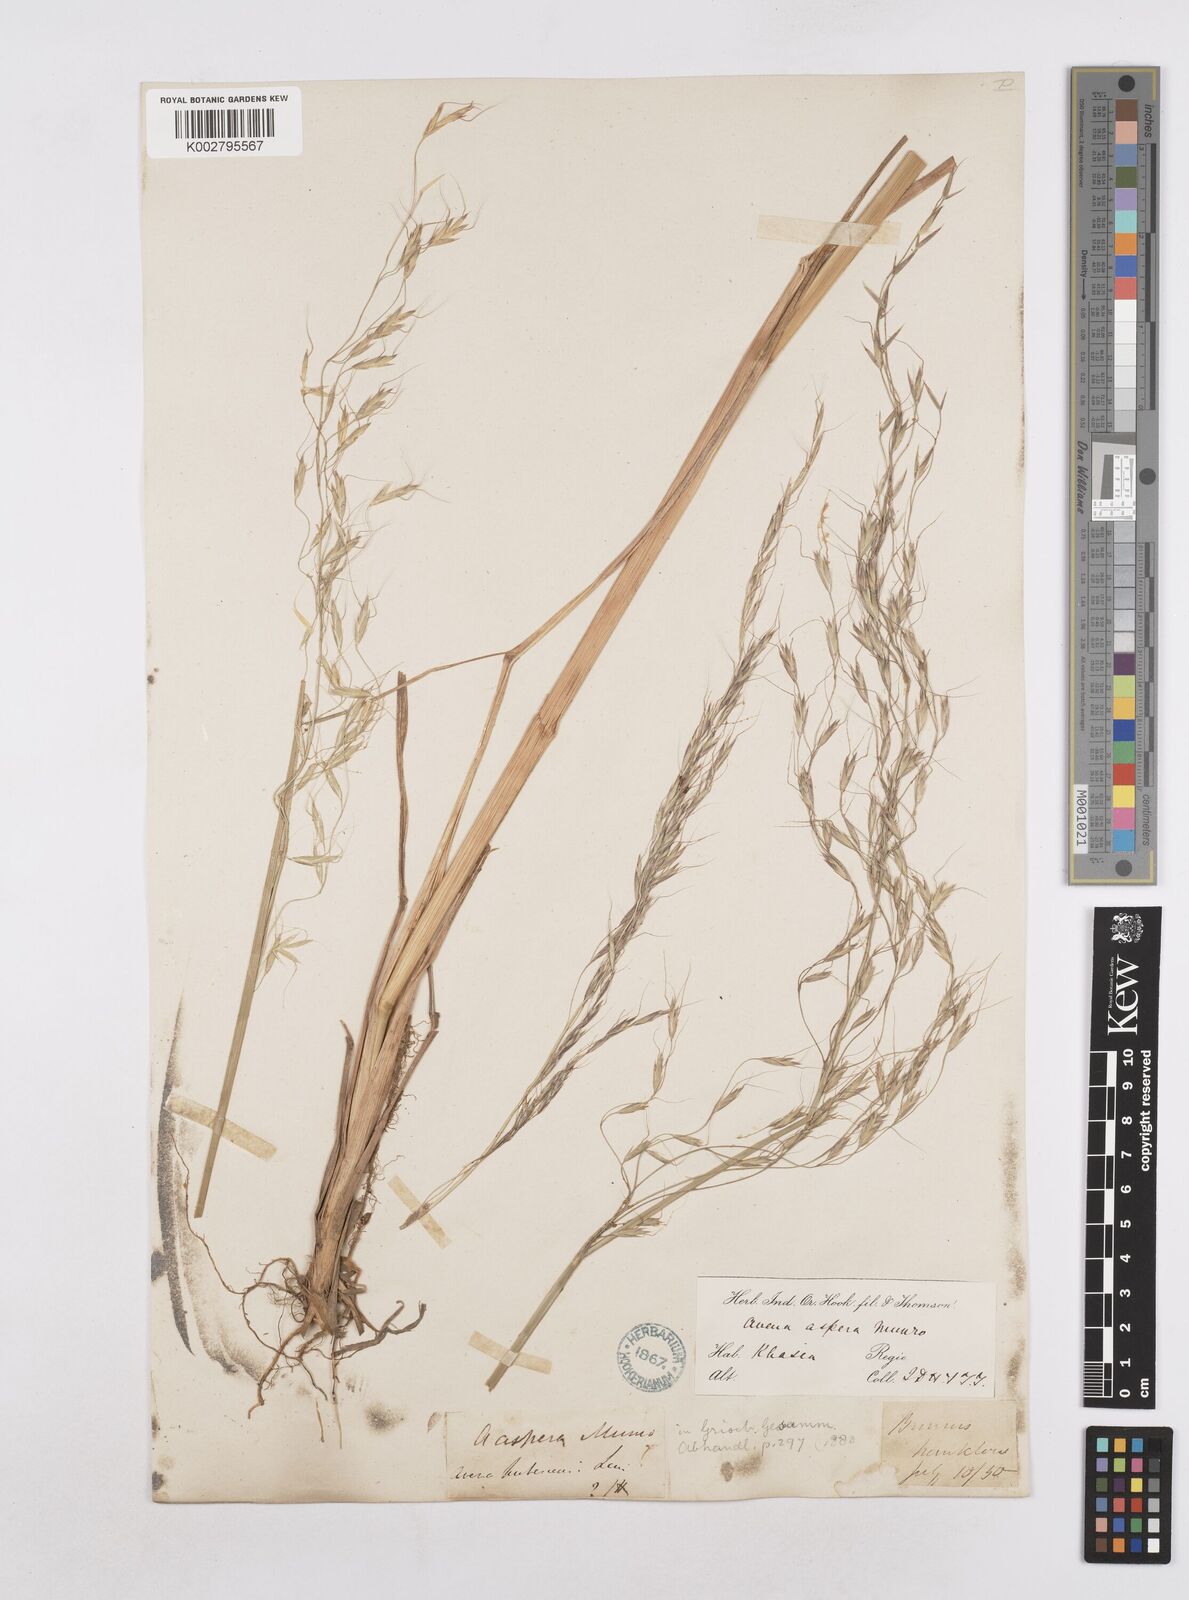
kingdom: Plantae
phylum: Tracheophyta
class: Liliopsida
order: Poales
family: Poaceae
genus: Trisetopsis
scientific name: Trisetopsis junghuhnii
